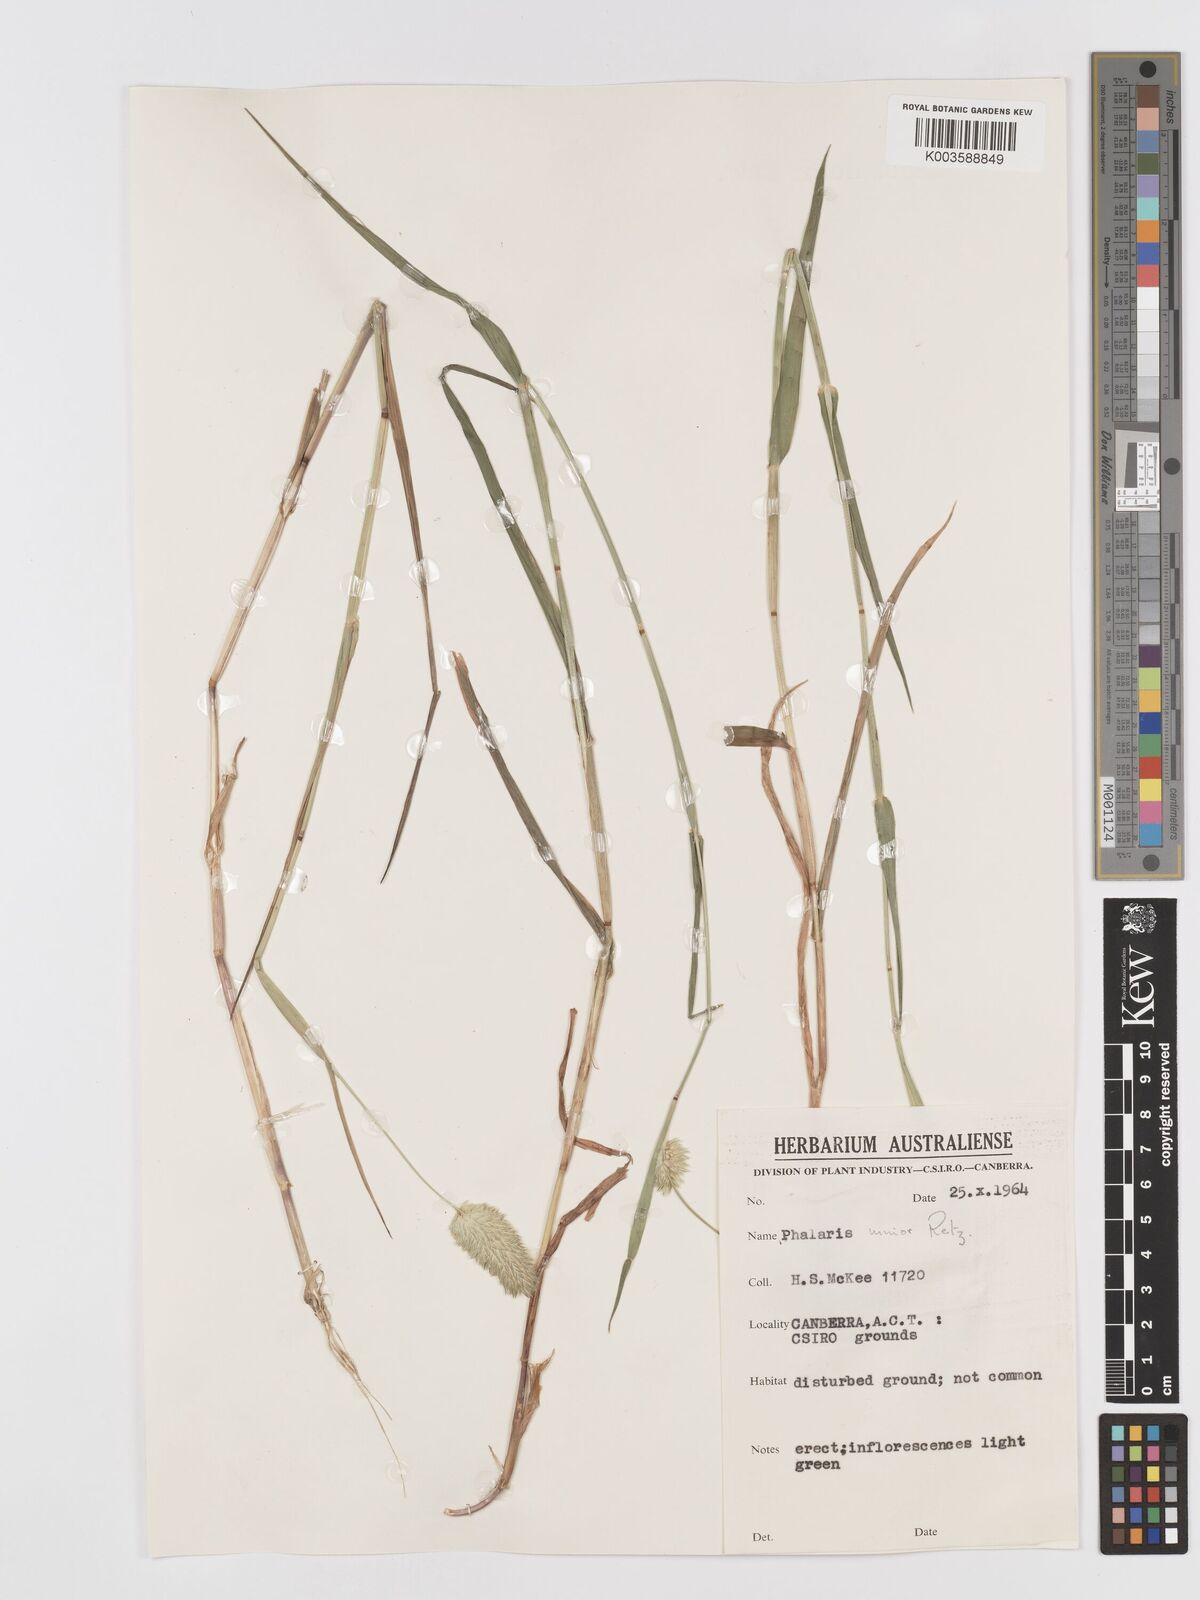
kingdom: Plantae
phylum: Tracheophyta
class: Liliopsida
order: Poales
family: Poaceae
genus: Phalaris
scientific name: Phalaris minor
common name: Littleseed canarygrass
